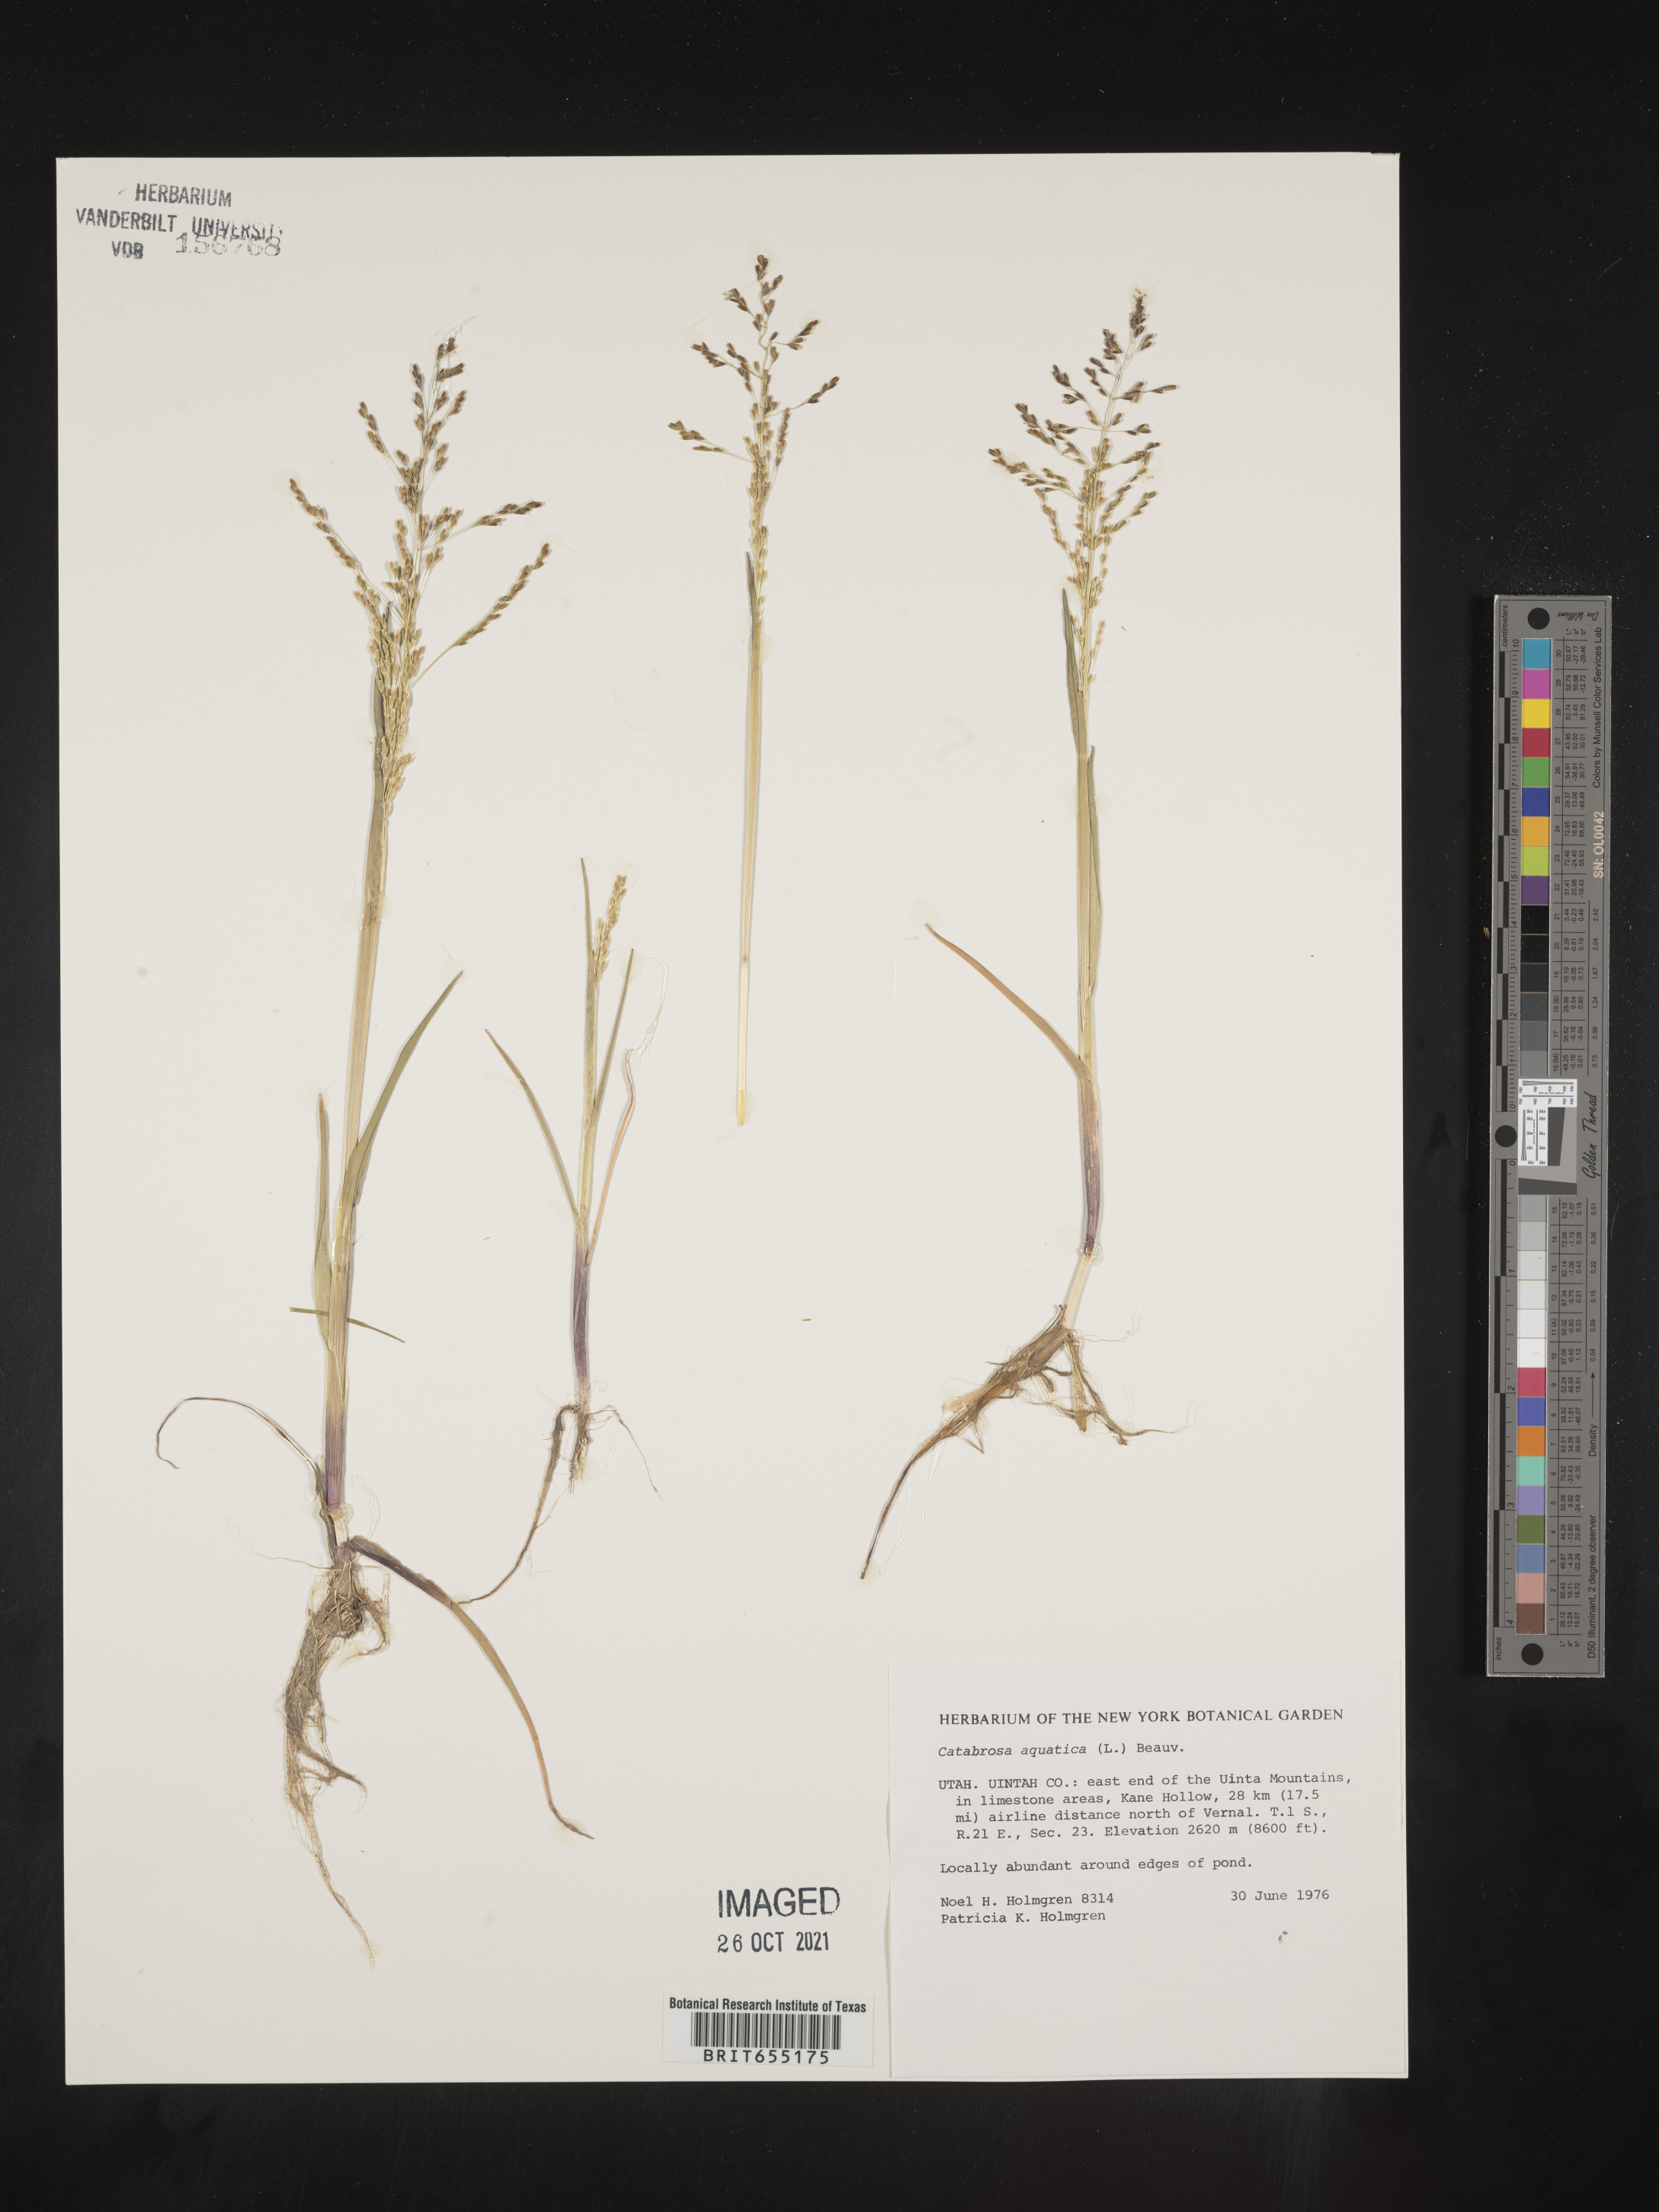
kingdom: Plantae
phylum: Tracheophyta
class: Liliopsida
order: Poales
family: Poaceae
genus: Catabrosa
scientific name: Catabrosa
